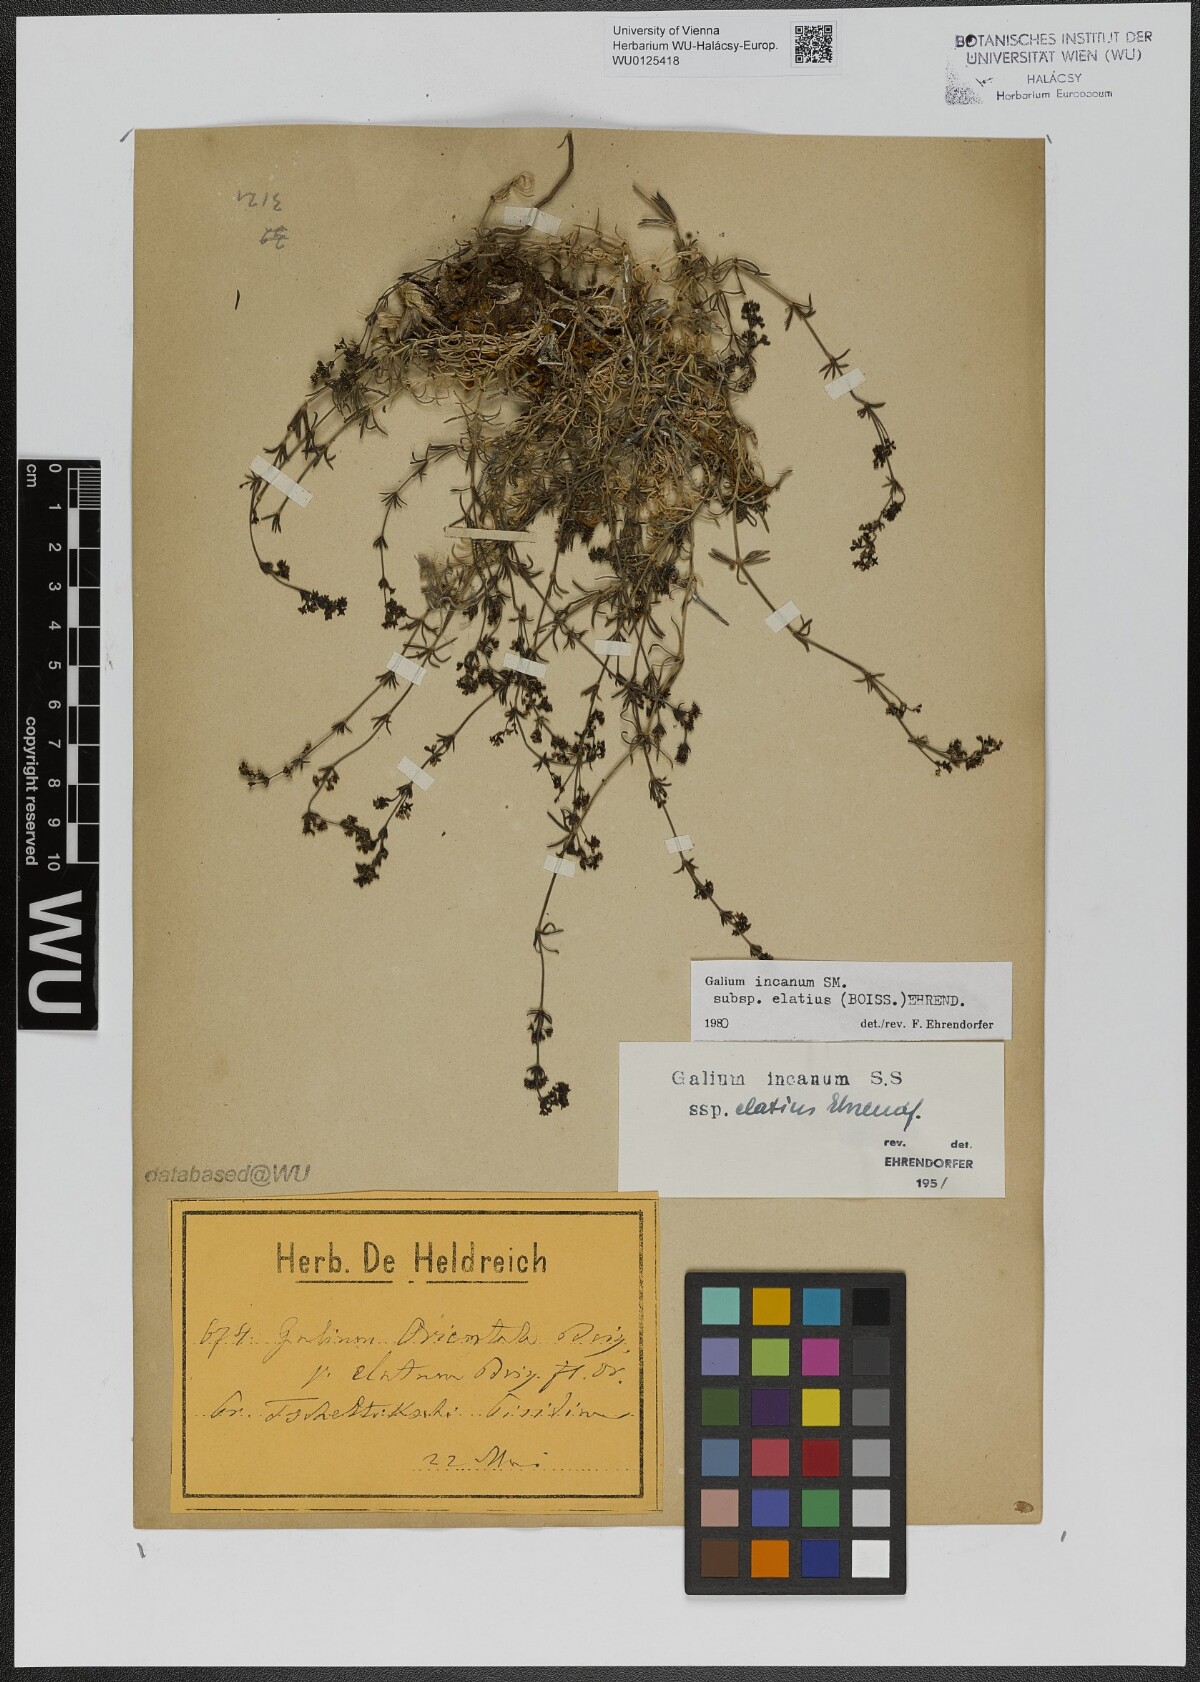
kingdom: Plantae
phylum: Tracheophyta
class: Magnoliopsida
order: Gentianales
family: Rubiaceae
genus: Galium
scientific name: Galium incanum
